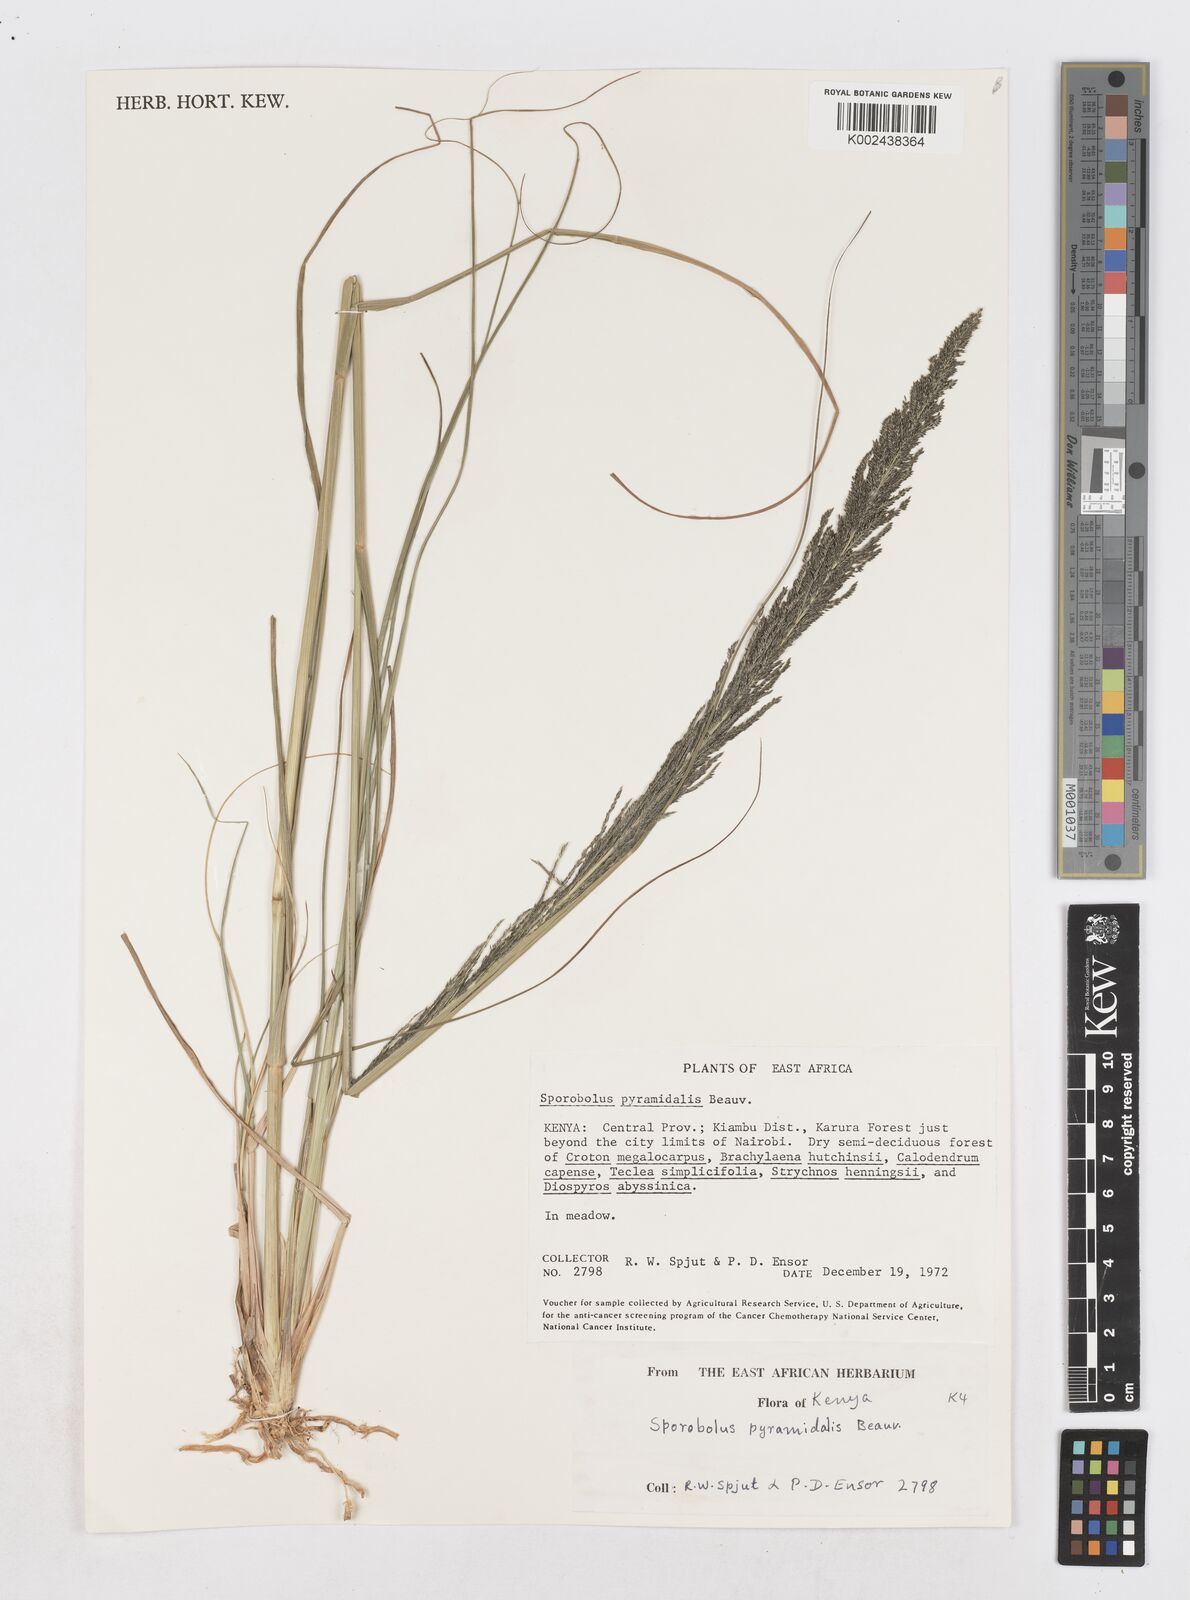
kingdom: Plantae
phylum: Tracheophyta
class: Liliopsida
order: Poales
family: Poaceae
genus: Sporobolus
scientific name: Sporobolus pyramidalis
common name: West indian dropseed
